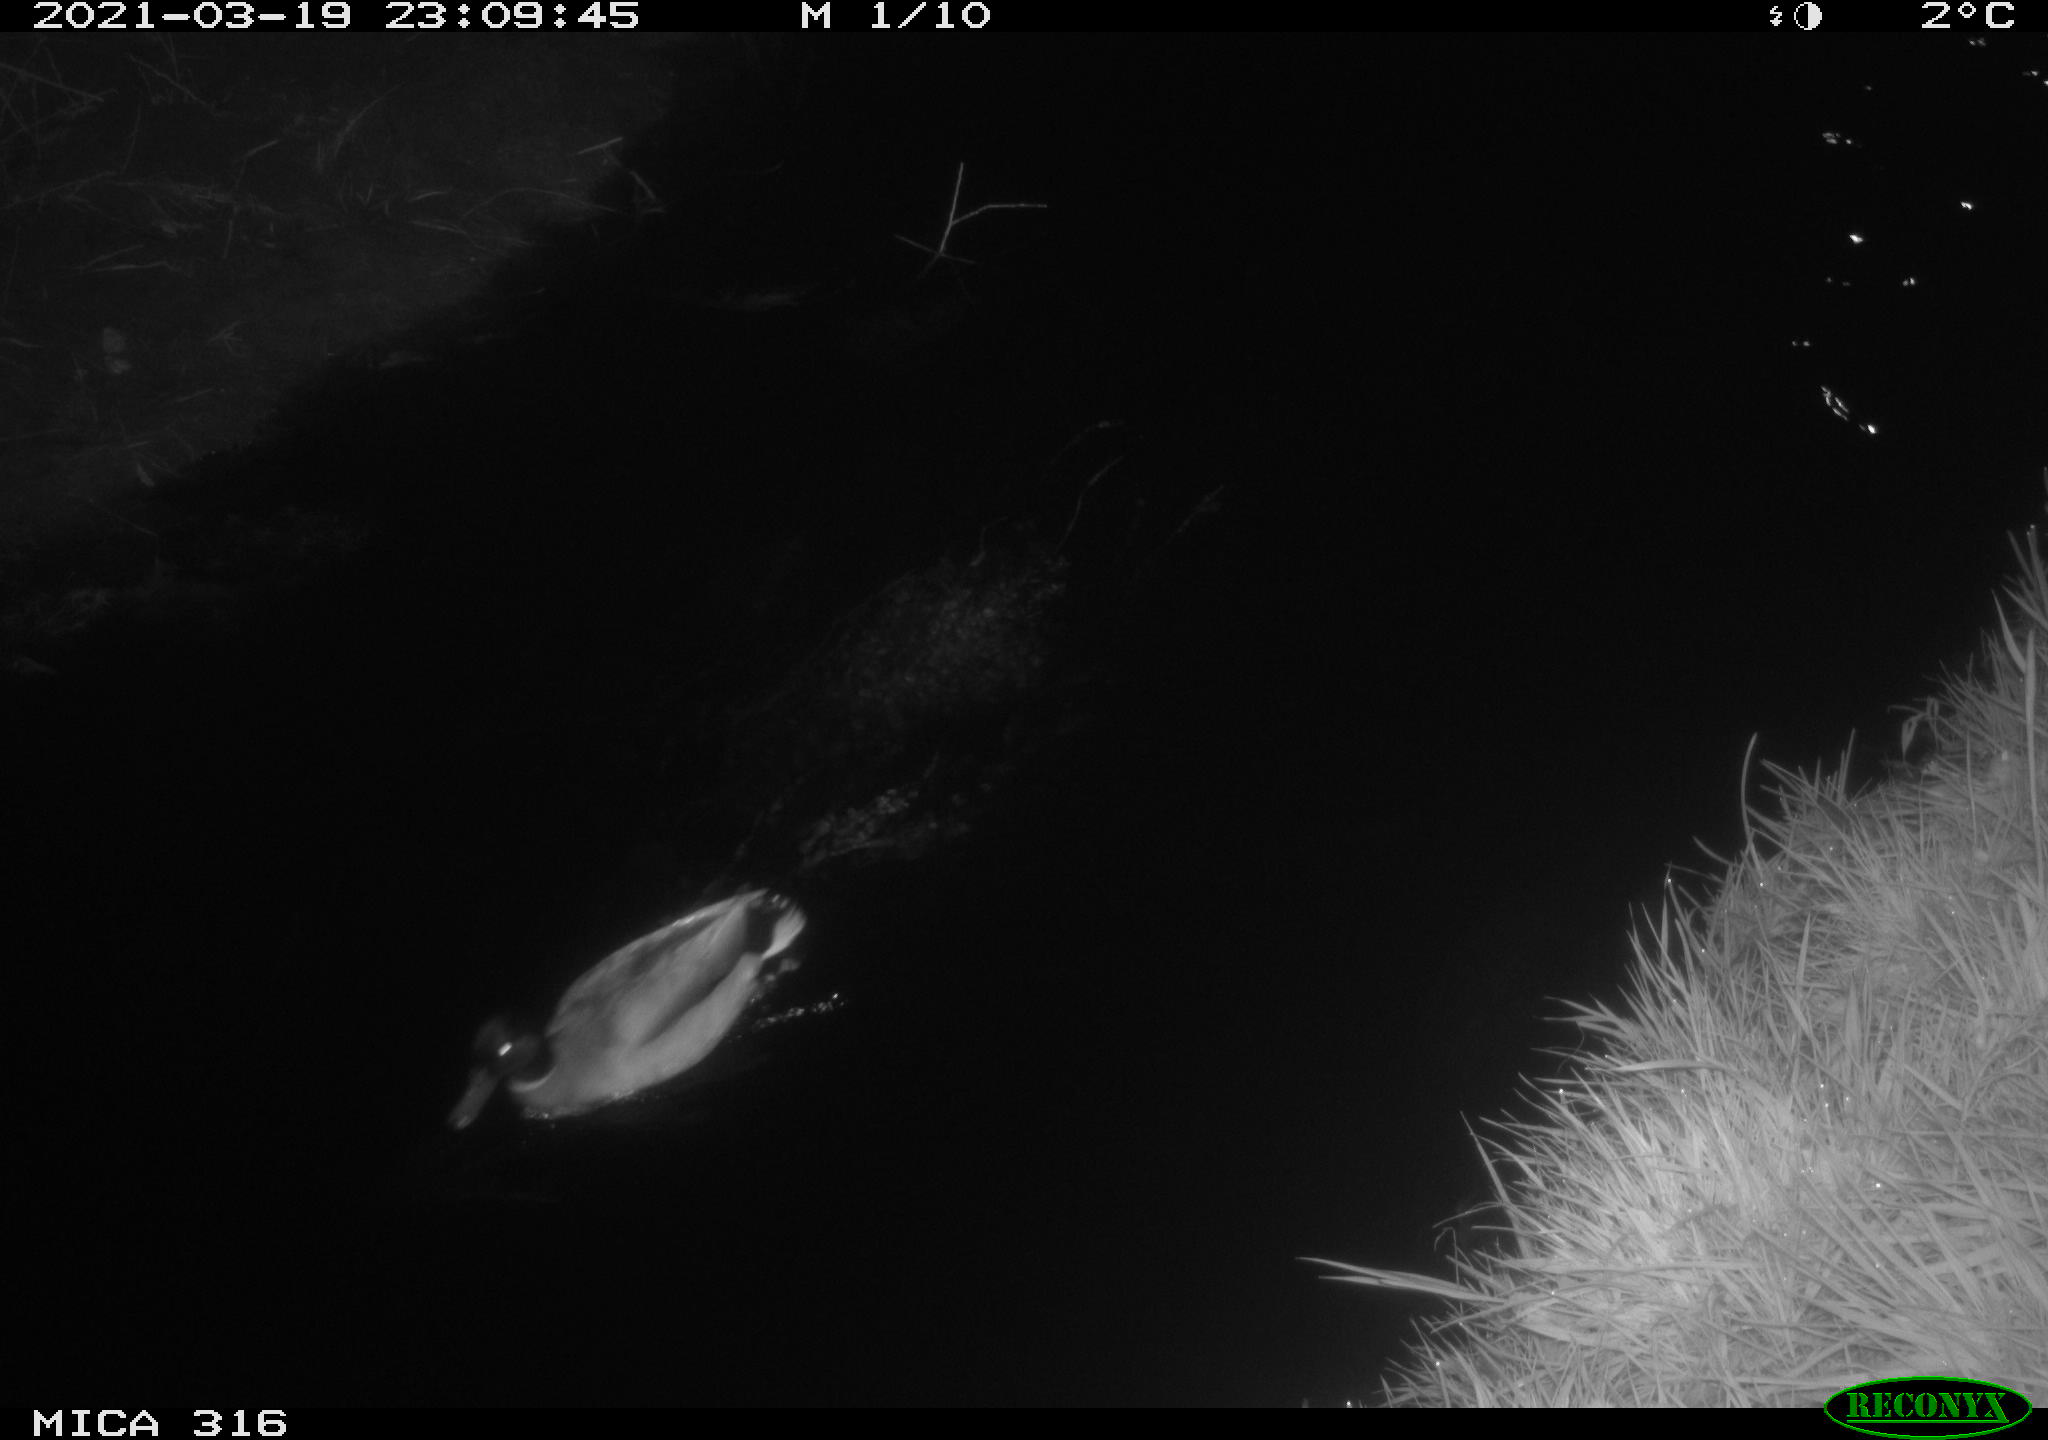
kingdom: Animalia
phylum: Chordata
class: Aves
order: Anseriformes
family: Anatidae
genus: Anas
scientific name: Anas platyrhynchos
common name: Mallard
